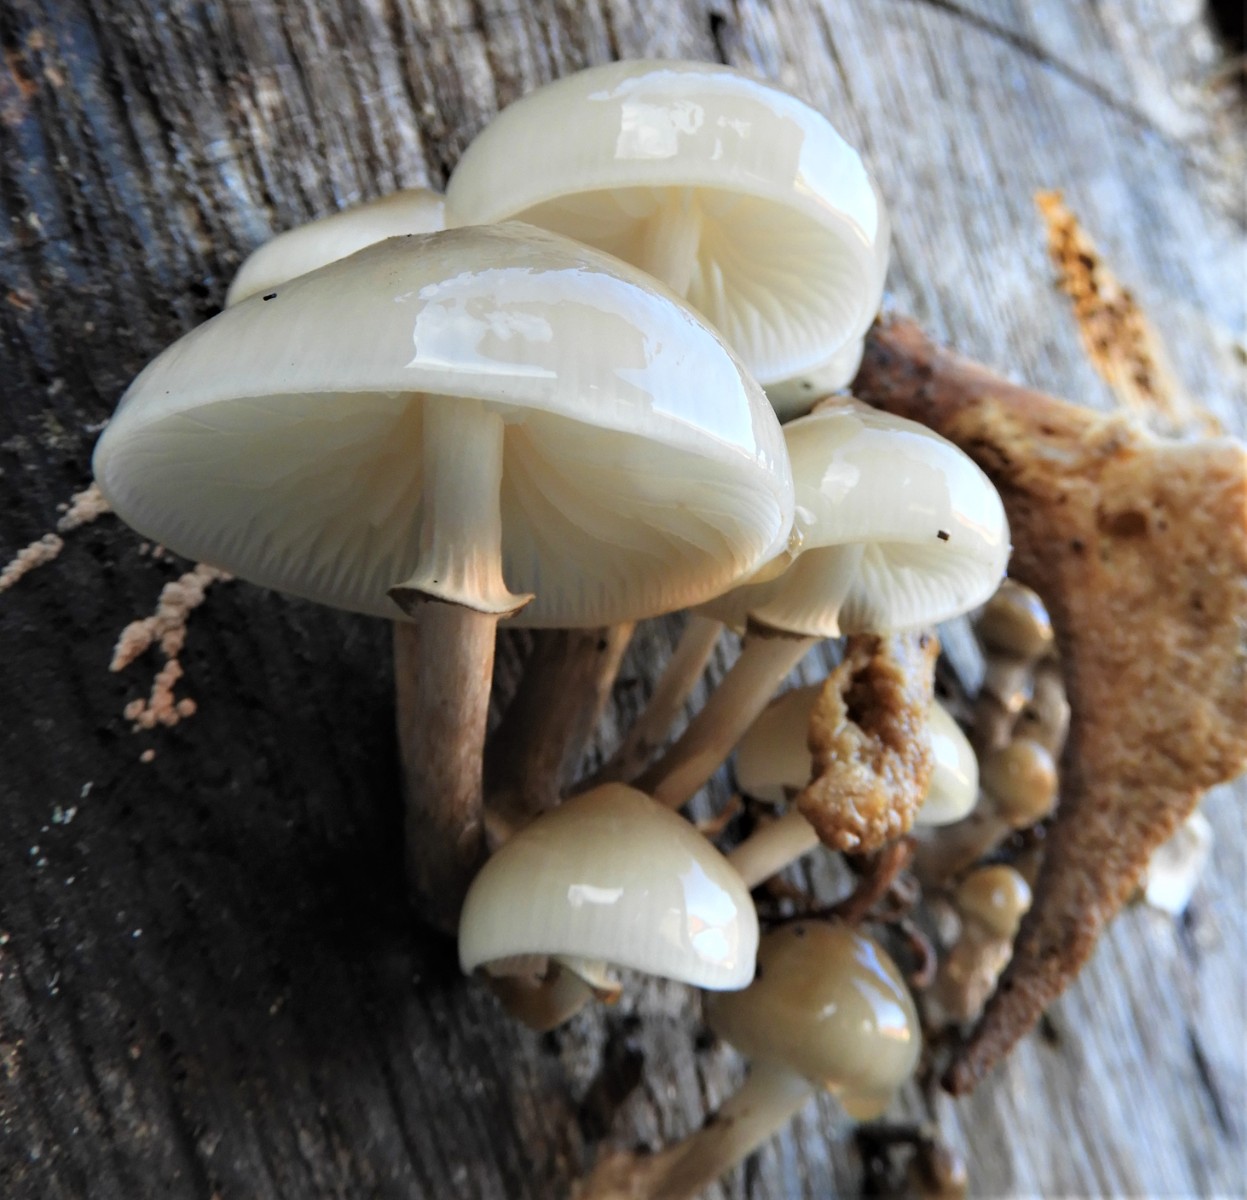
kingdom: Fungi
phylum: Basidiomycota
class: Agaricomycetes
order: Agaricales
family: Physalacriaceae
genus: Mucidula
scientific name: Mucidula mucida
